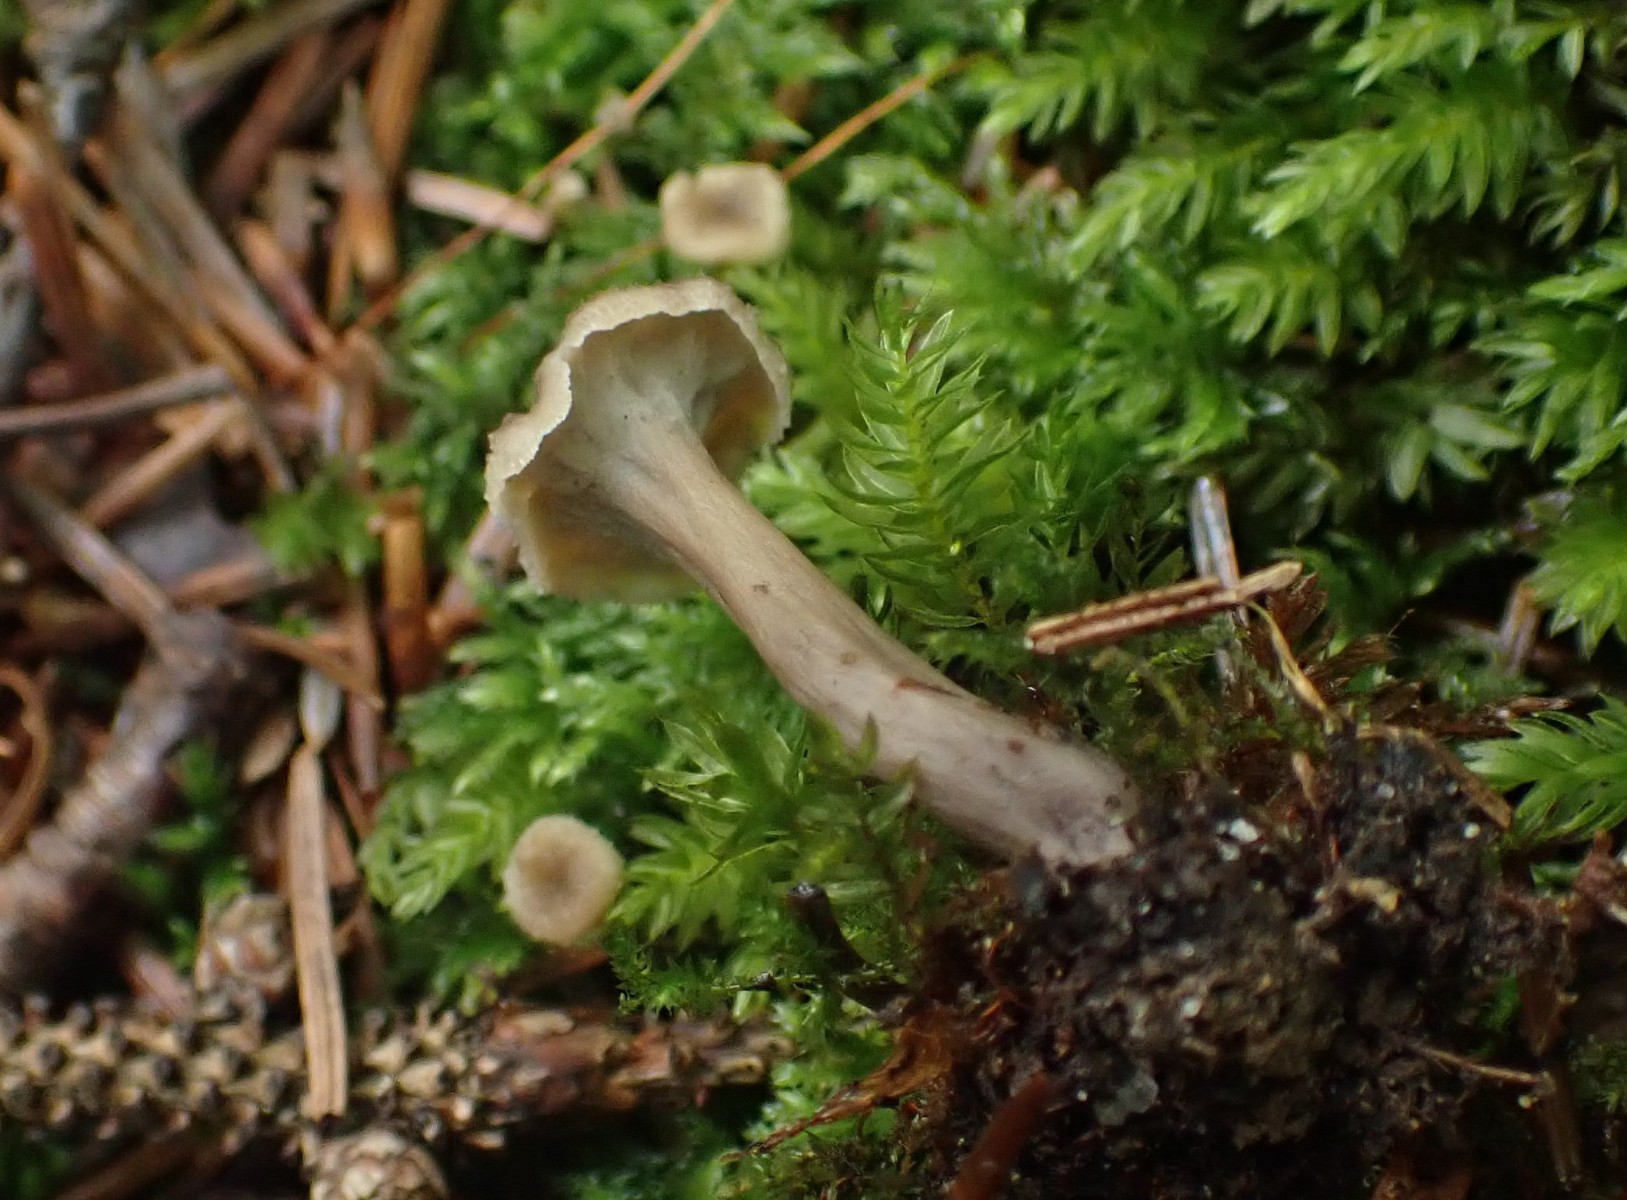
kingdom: Fungi
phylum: Basidiomycota
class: Agaricomycetes
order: Cantharellales
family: Hydnaceae
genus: Craterellus
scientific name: Craterellus undulatus
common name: liden kantarel
